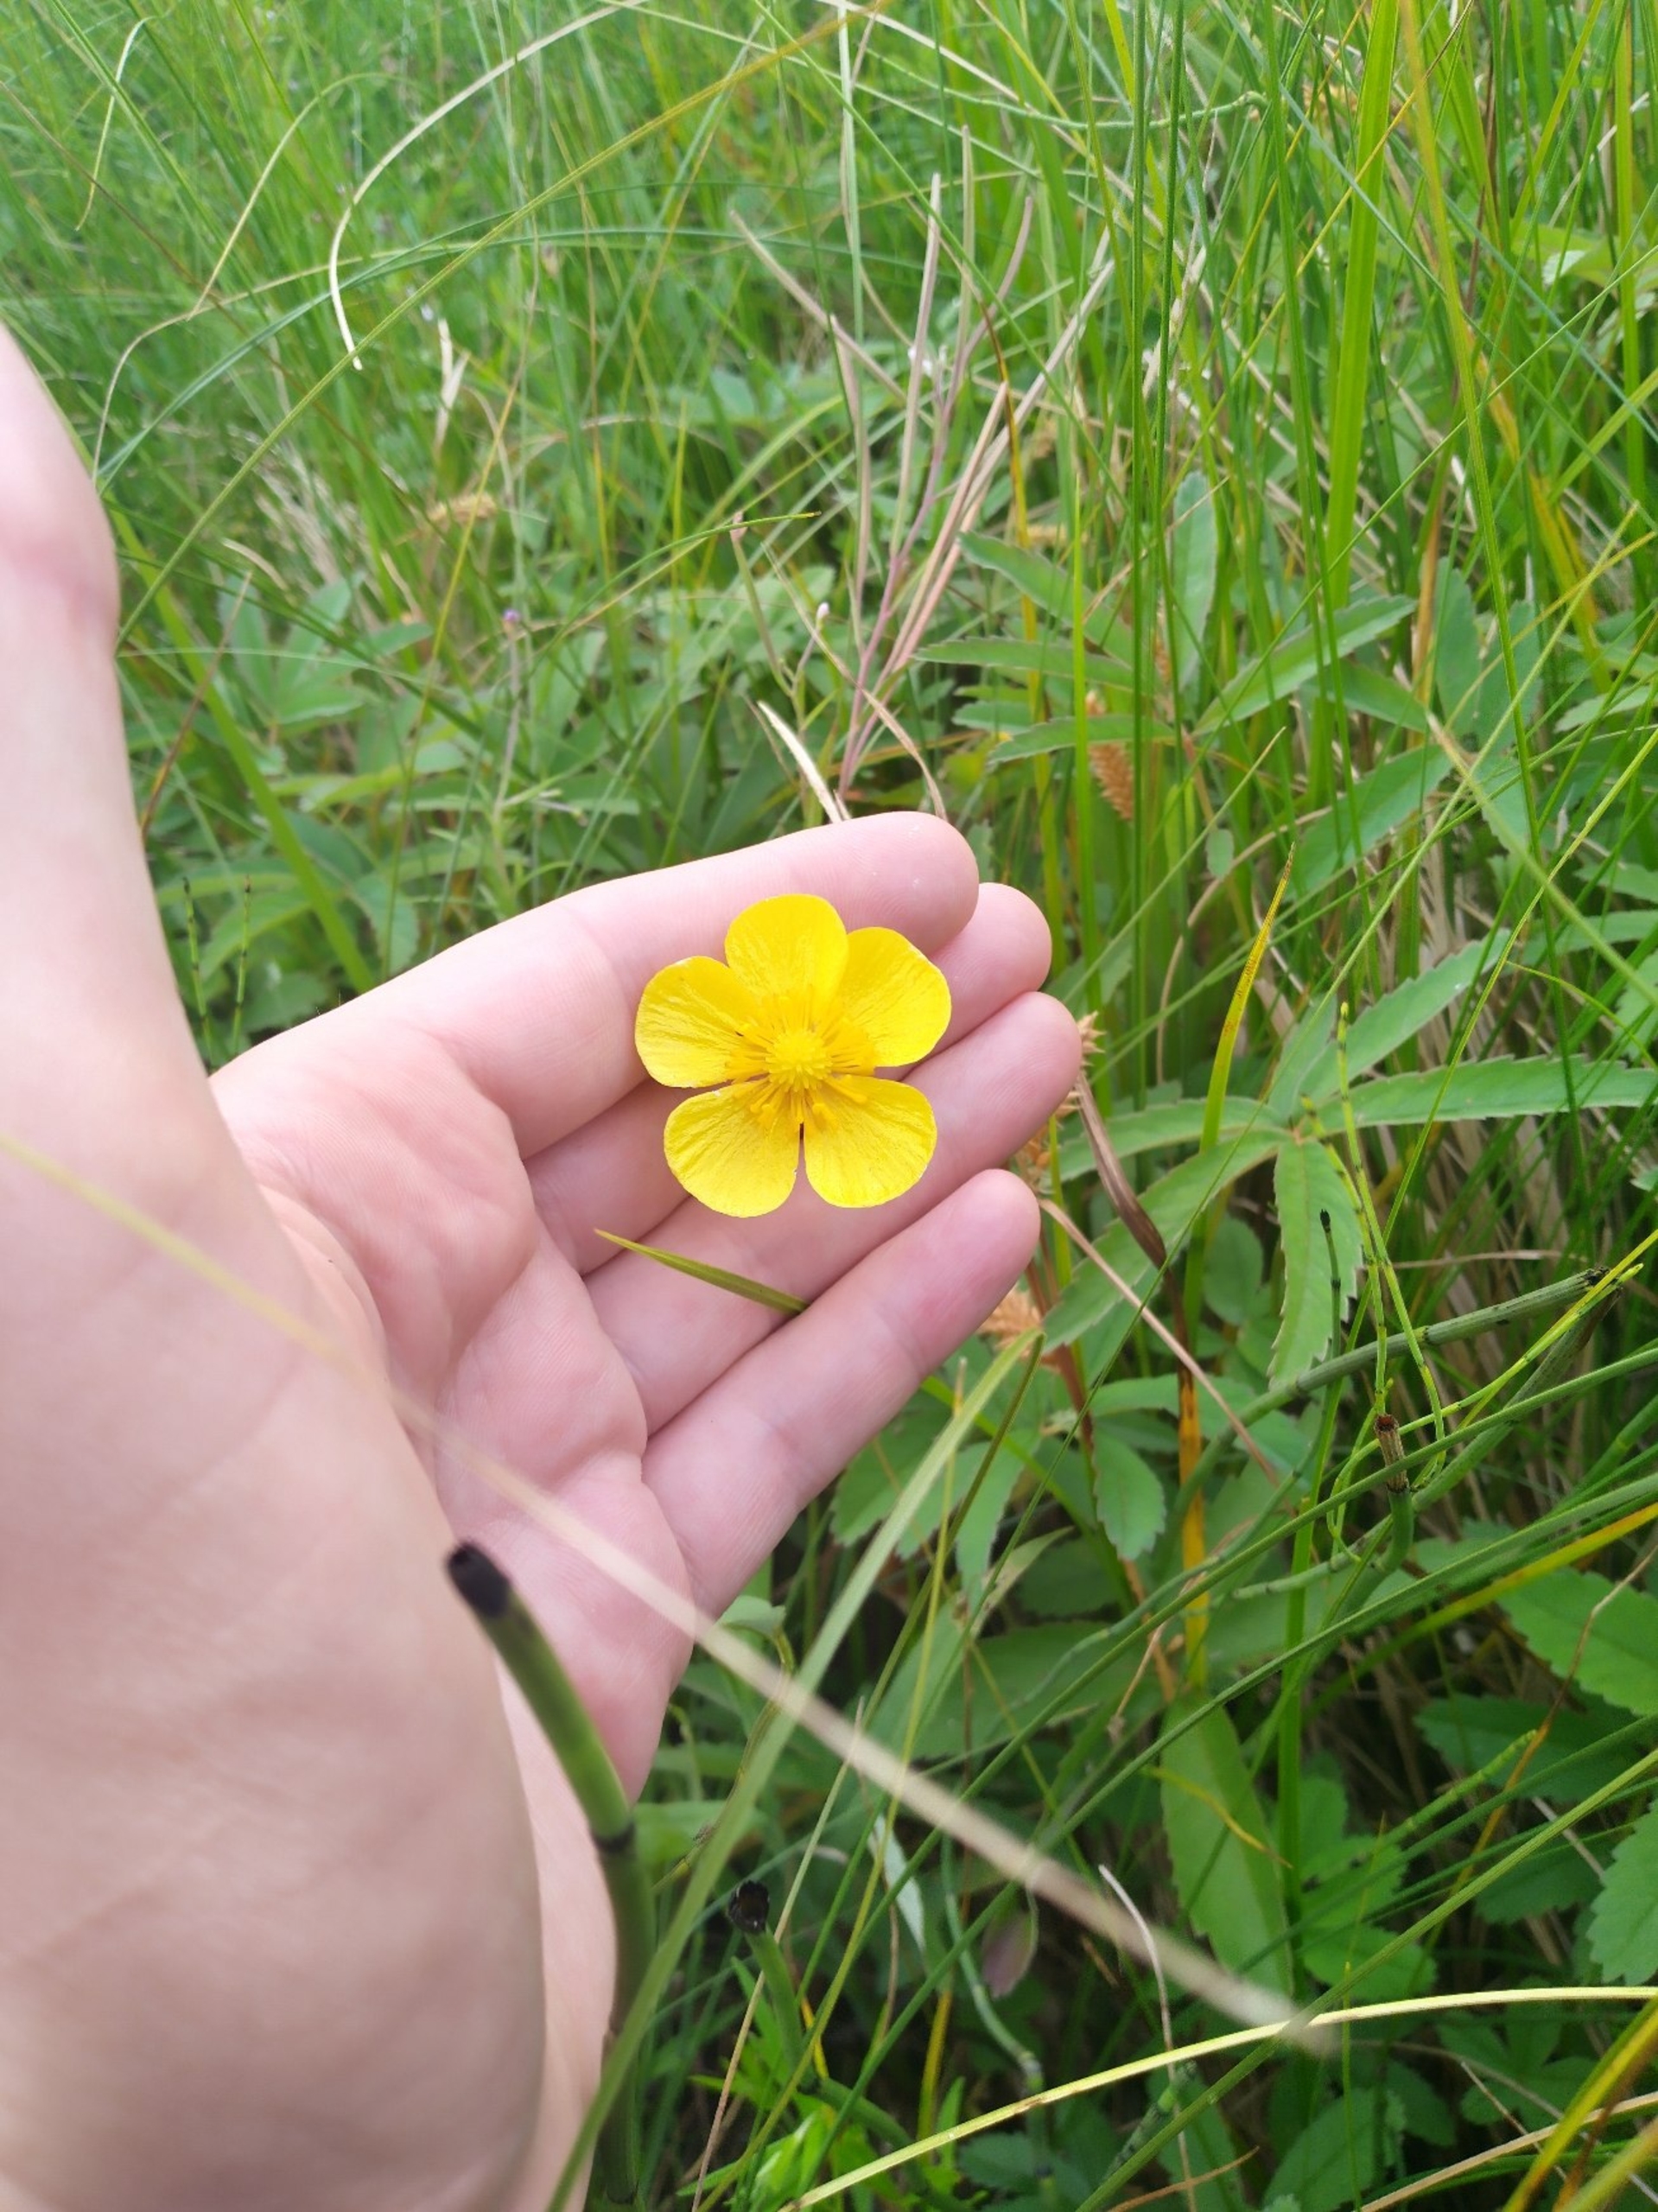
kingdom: Plantae
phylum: Tracheophyta
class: Magnoliopsida
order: Ranunculales
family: Ranunculaceae
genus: Ranunculus
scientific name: Ranunculus lingua
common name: Langbladet ranunkel
